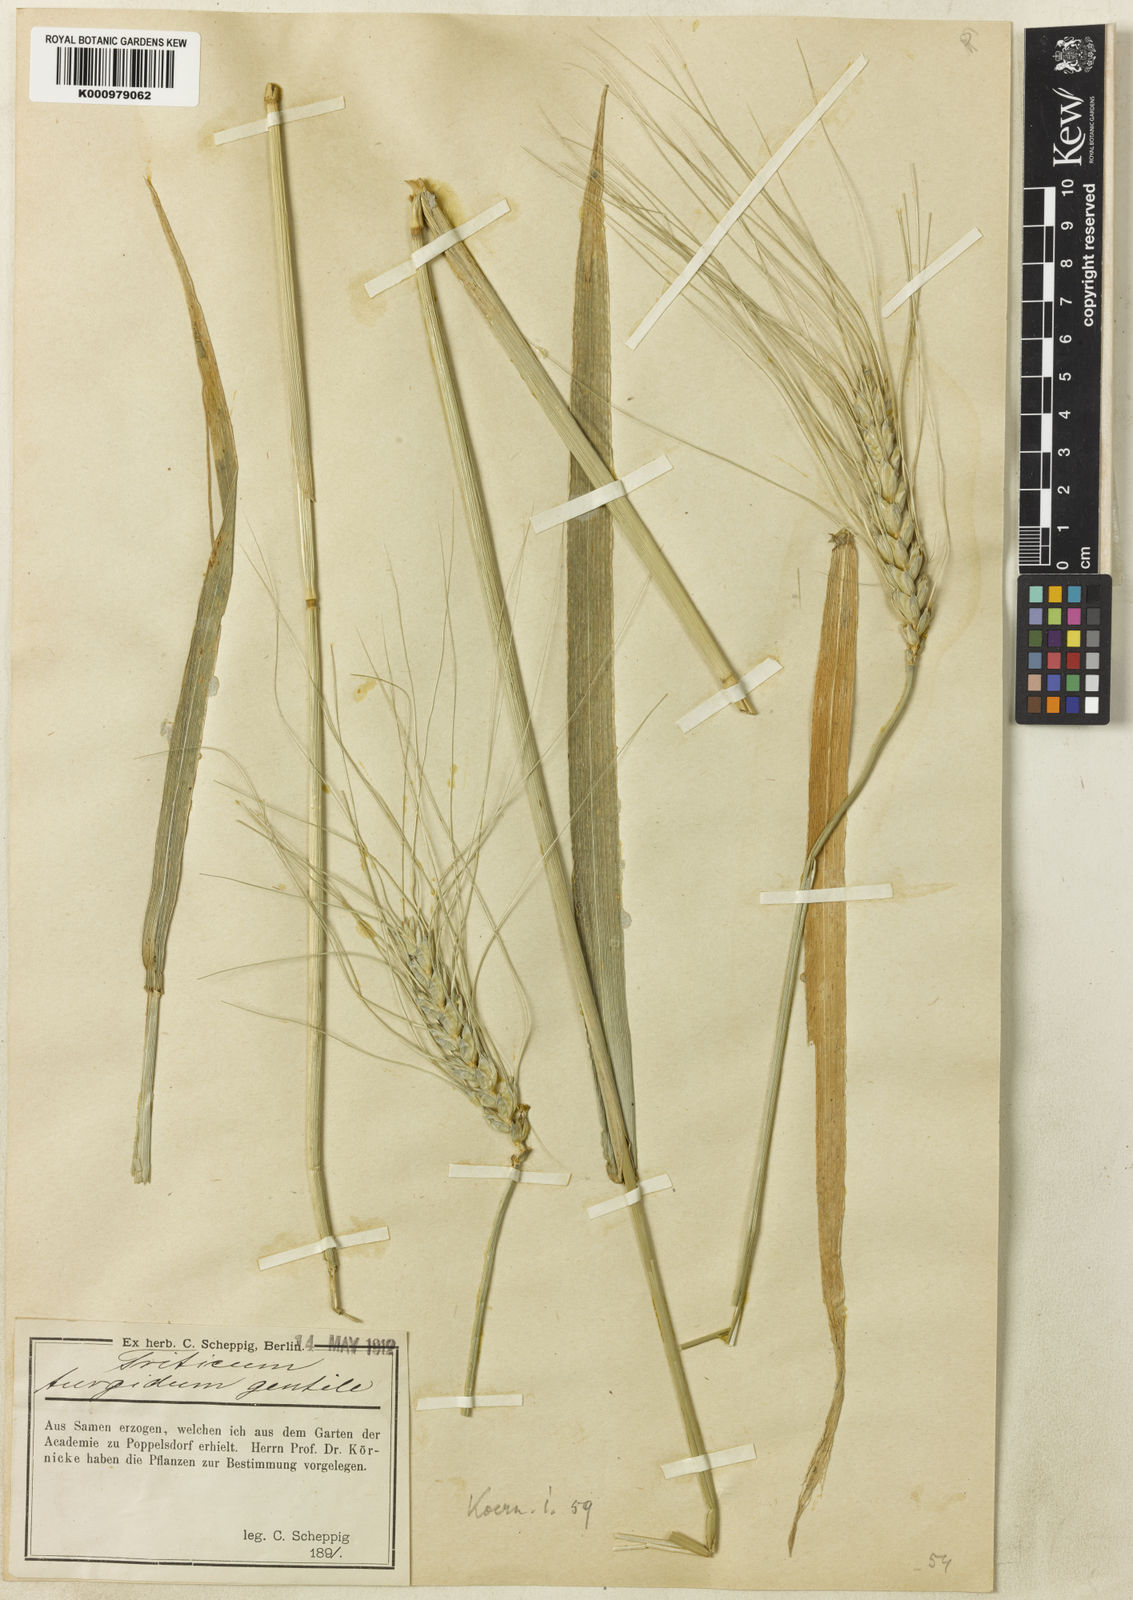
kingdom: Plantae
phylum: Tracheophyta
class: Liliopsida
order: Poales
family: Poaceae
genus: Triticum
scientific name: Triticum turgidum
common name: Rivet wheat
